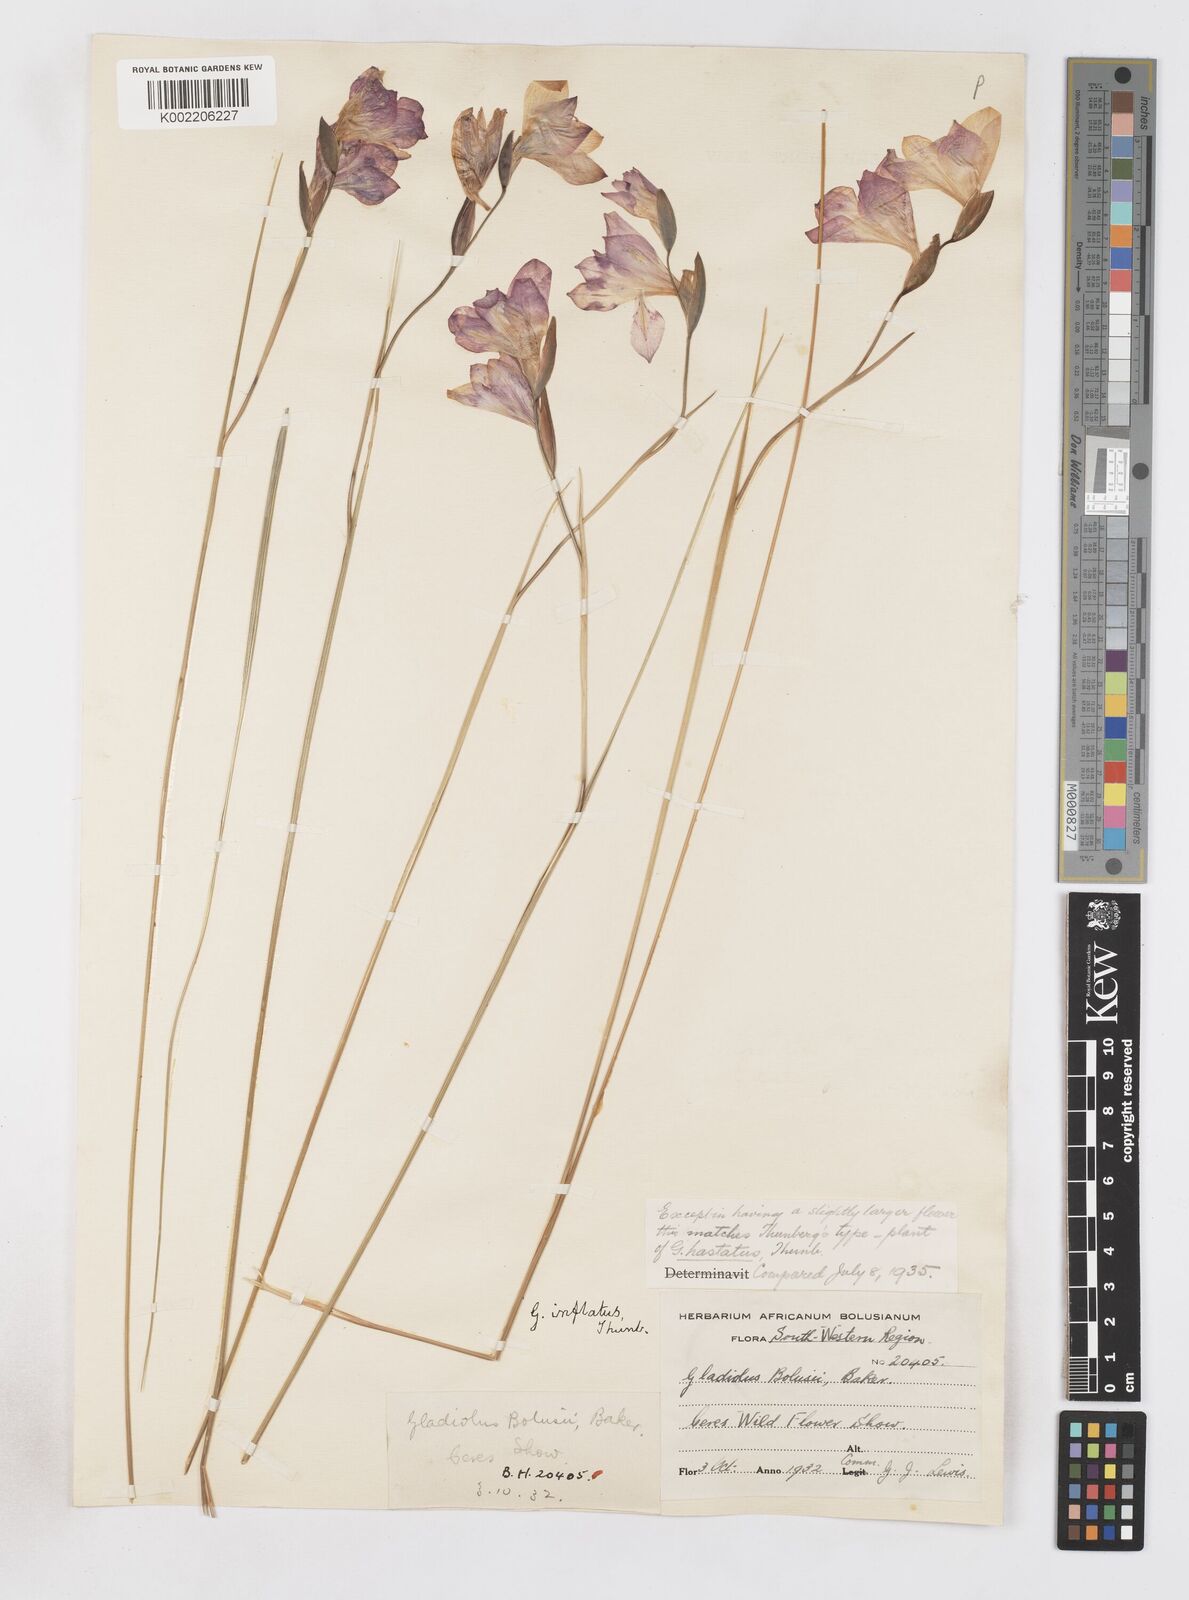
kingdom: Plantae
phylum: Tracheophyta
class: Liliopsida
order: Asparagales
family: Iridaceae
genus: Gladiolus
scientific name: Gladiolus inflatus
